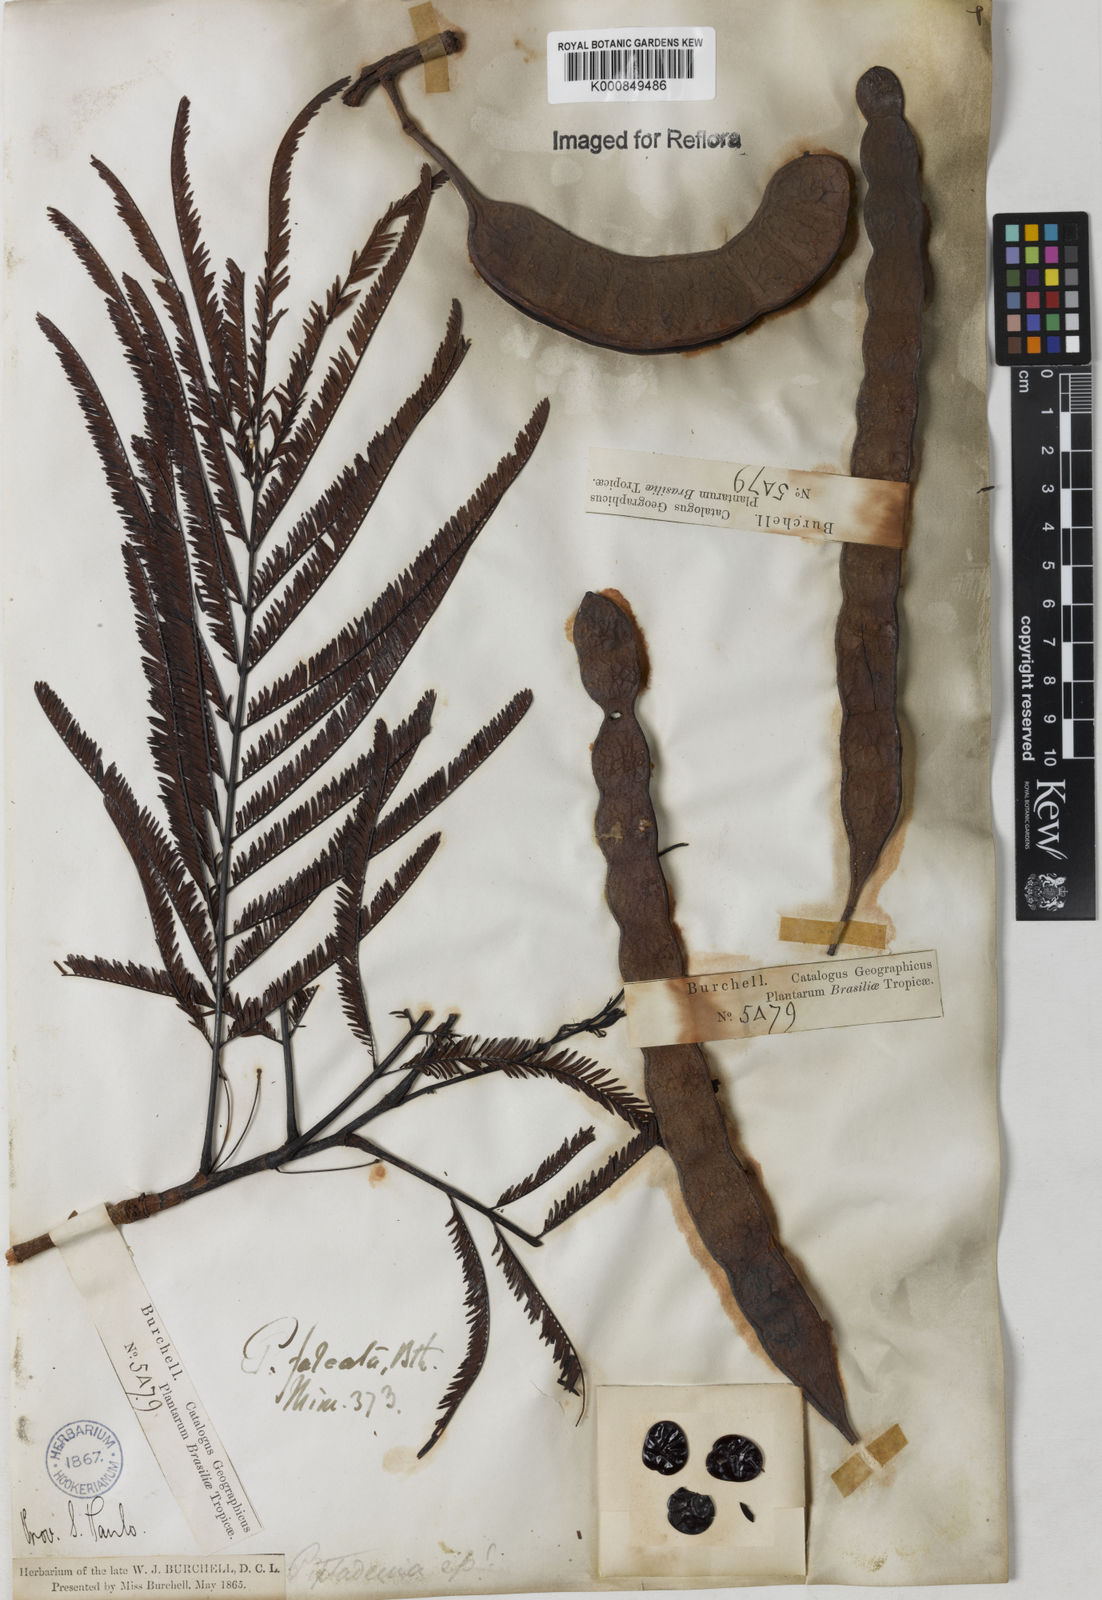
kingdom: Plantae
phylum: Tracheophyta
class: Magnoliopsida
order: Fabales
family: Fabaceae
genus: Anadenanthera
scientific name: Anadenanthera peregrina
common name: Cohoba
